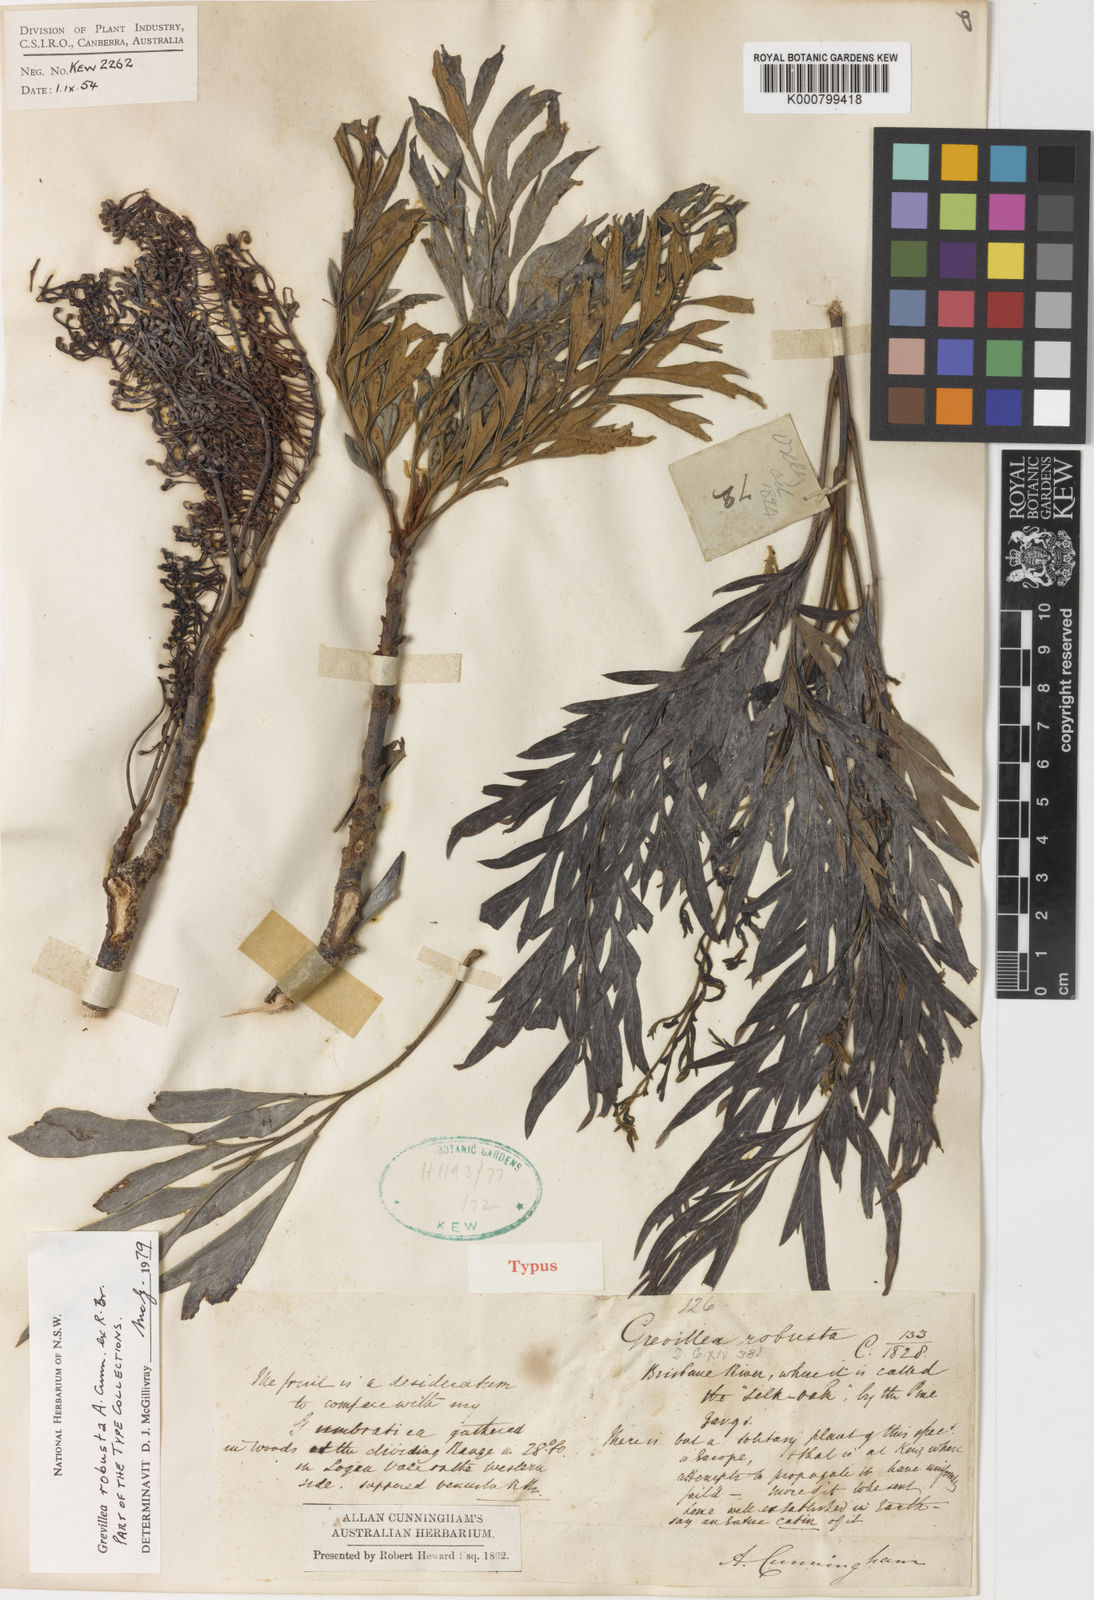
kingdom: Plantae
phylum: Tracheophyta
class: Magnoliopsida
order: Proteales
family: Proteaceae
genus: Grevillea
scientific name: Grevillea robusta
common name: Silkoak
